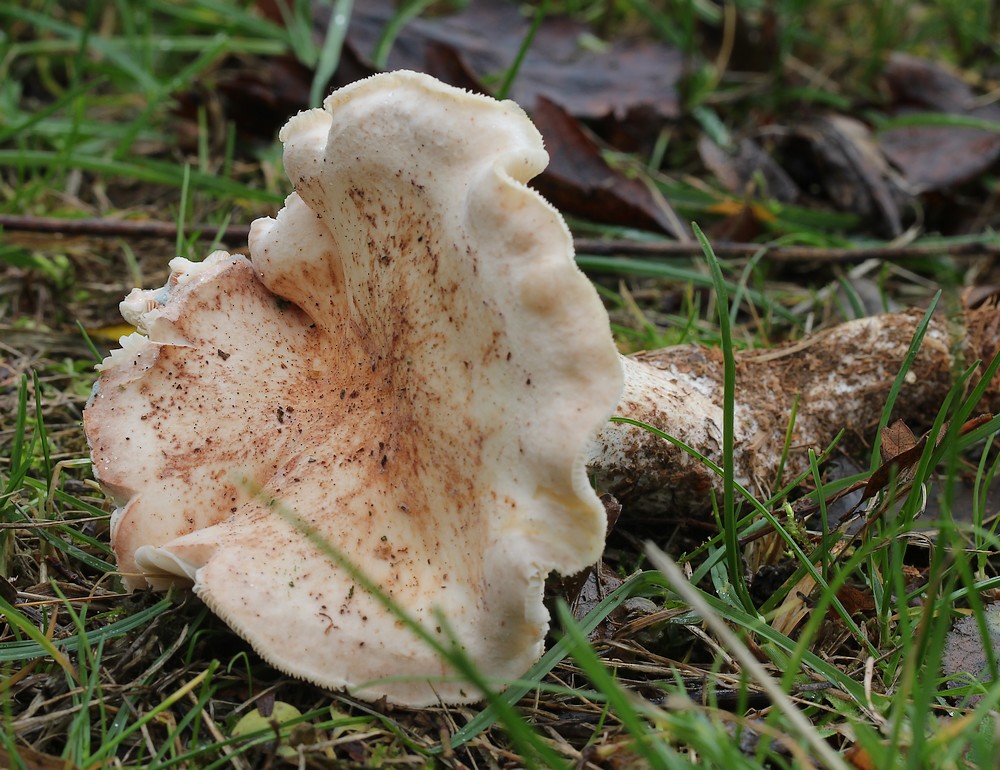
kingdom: Fungi
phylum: Basidiomycota
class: Agaricomycetes
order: Agaricales
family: Omphalotaceae
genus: Rhodocollybia
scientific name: Rhodocollybia maculata
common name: plettet fladhat
